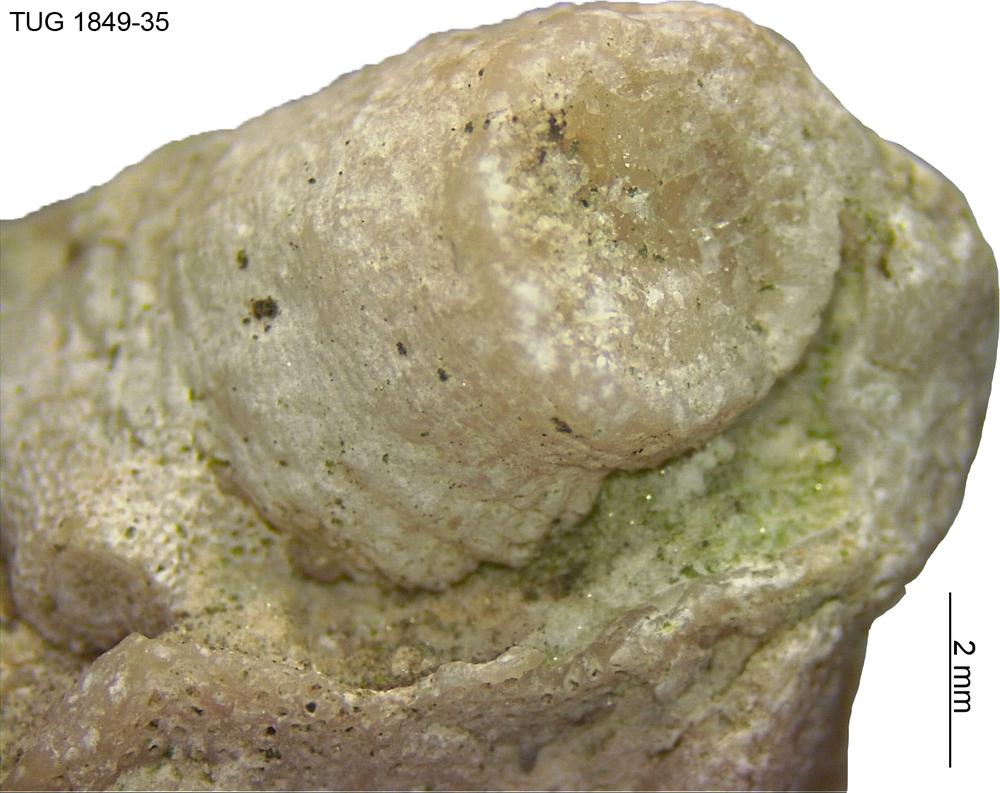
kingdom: Animalia
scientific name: Animalia
